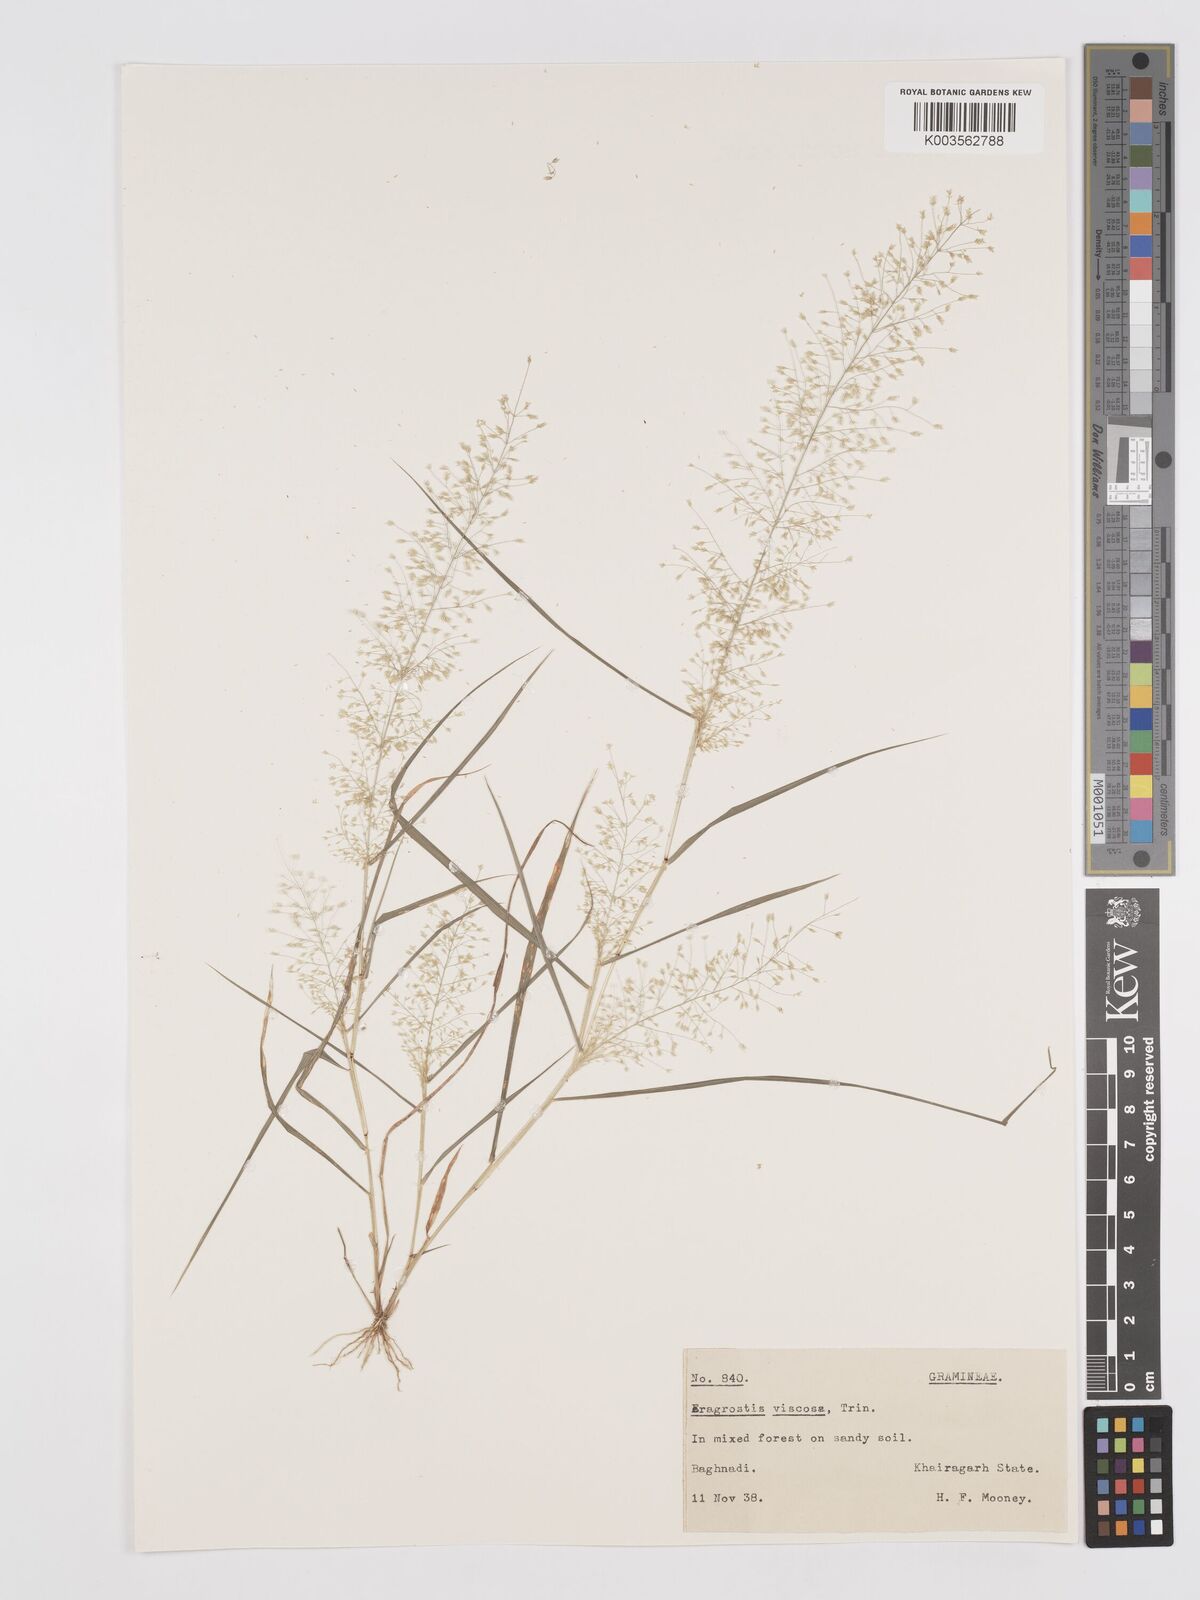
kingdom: Plantae
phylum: Tracheophyta
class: Liliopsida
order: Poales
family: Poaceae
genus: Eragrostis
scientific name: Eragrostis viscosa
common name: Sticky love grass
